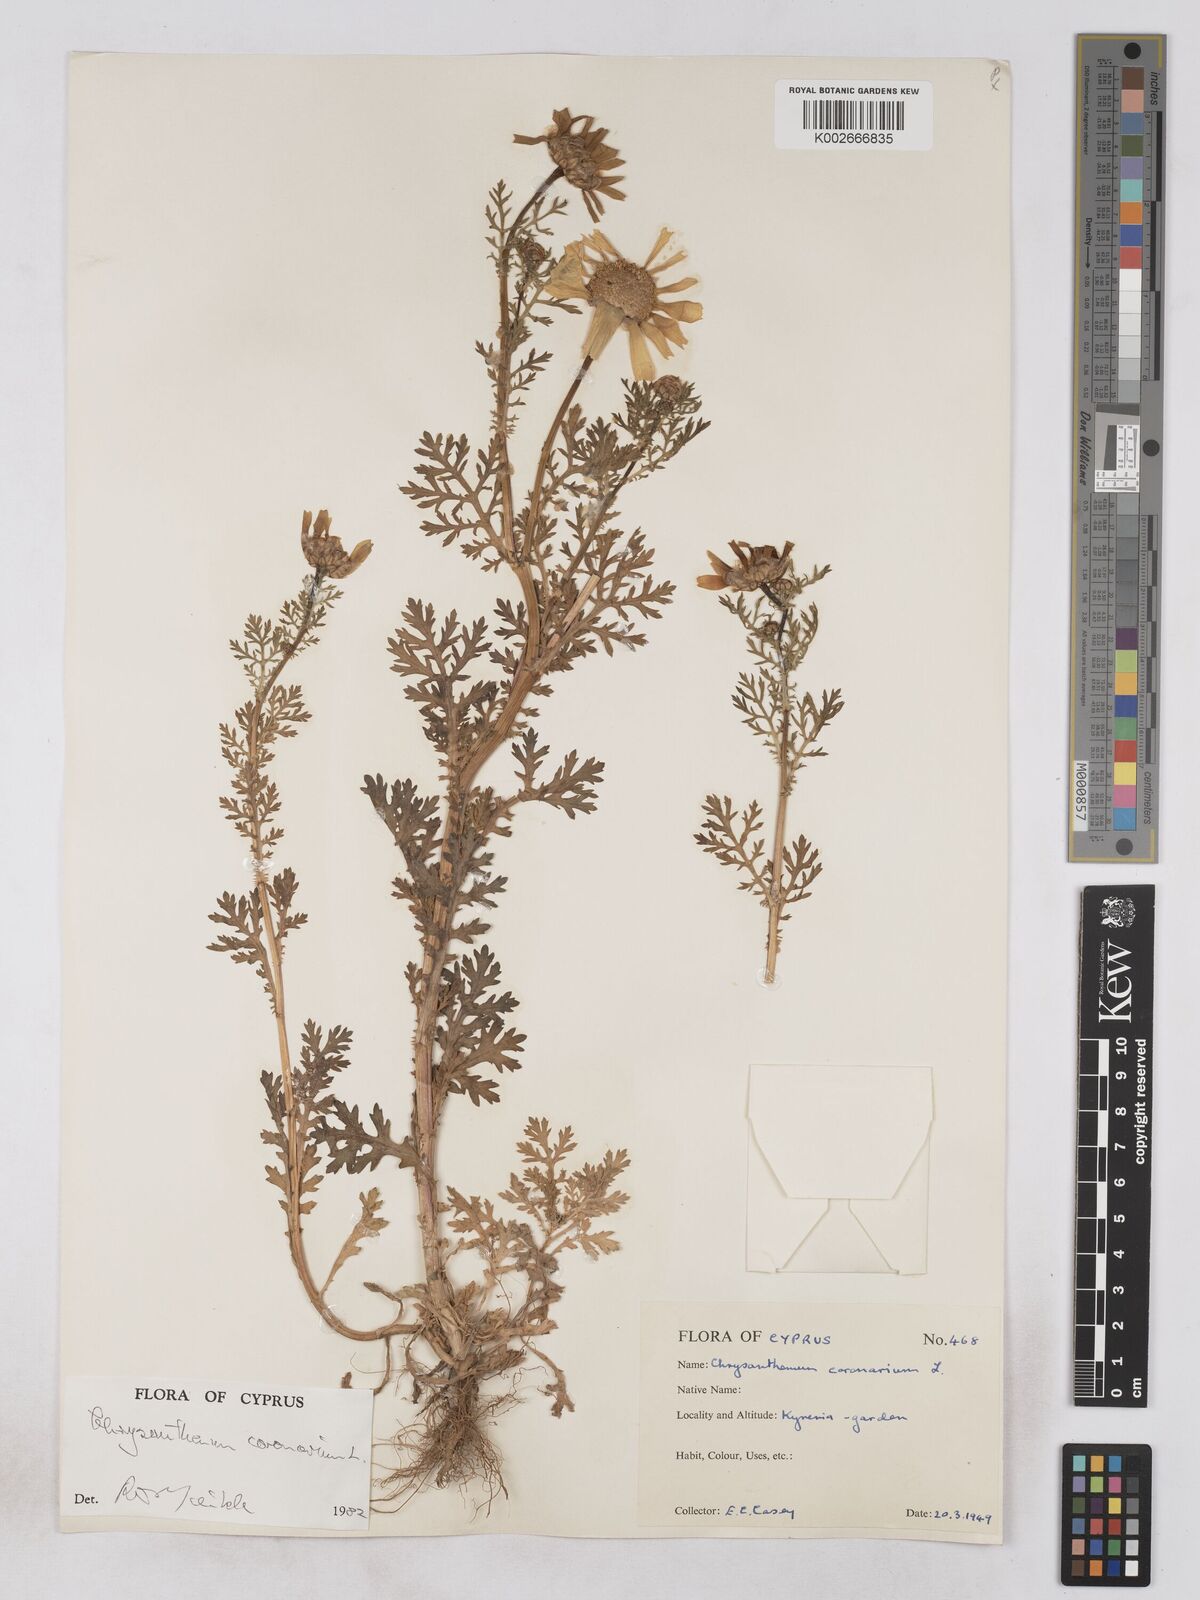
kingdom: Plantae
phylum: Tracheophyta
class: Magnoliopsida
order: Asterales
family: Asteraceae
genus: Glebionis
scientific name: Glebionis coronaria
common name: Crowndaisy
